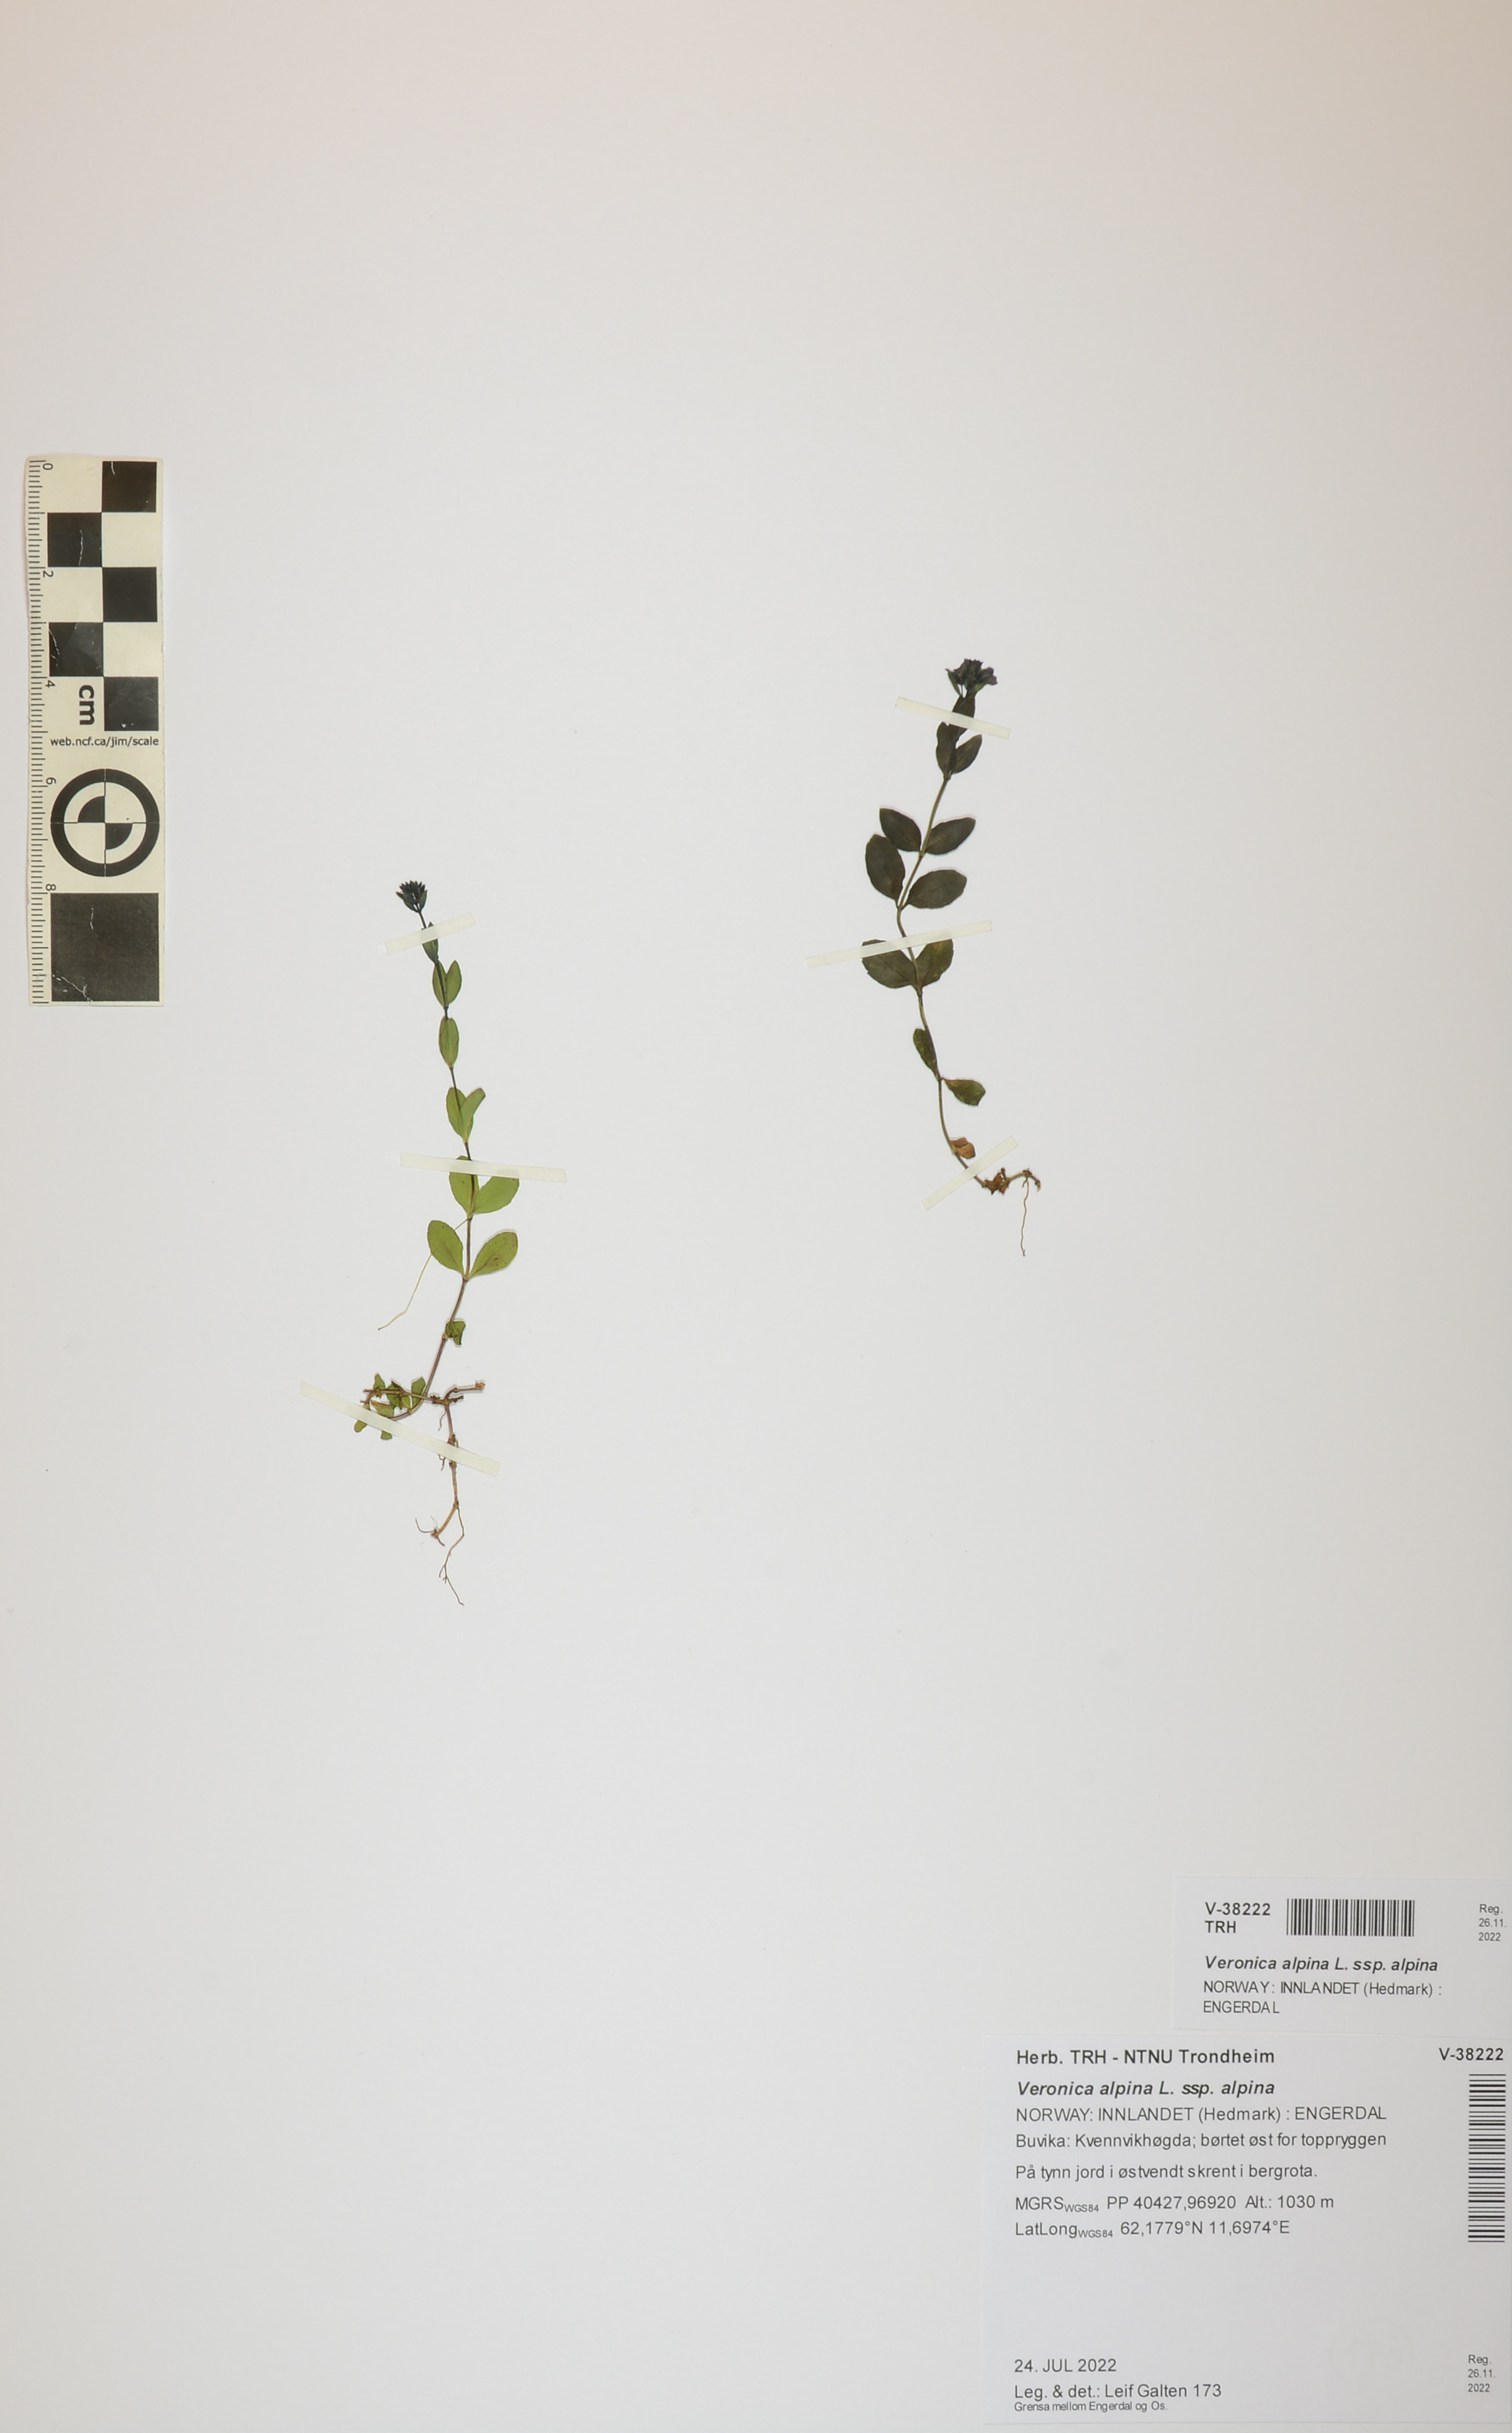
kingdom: Plantae
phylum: Tracheophyta
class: Magnoliopsida
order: Lamiales
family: Plantaginaceae
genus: Veronica
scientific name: Veronica alpina
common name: Alpine speedwell
